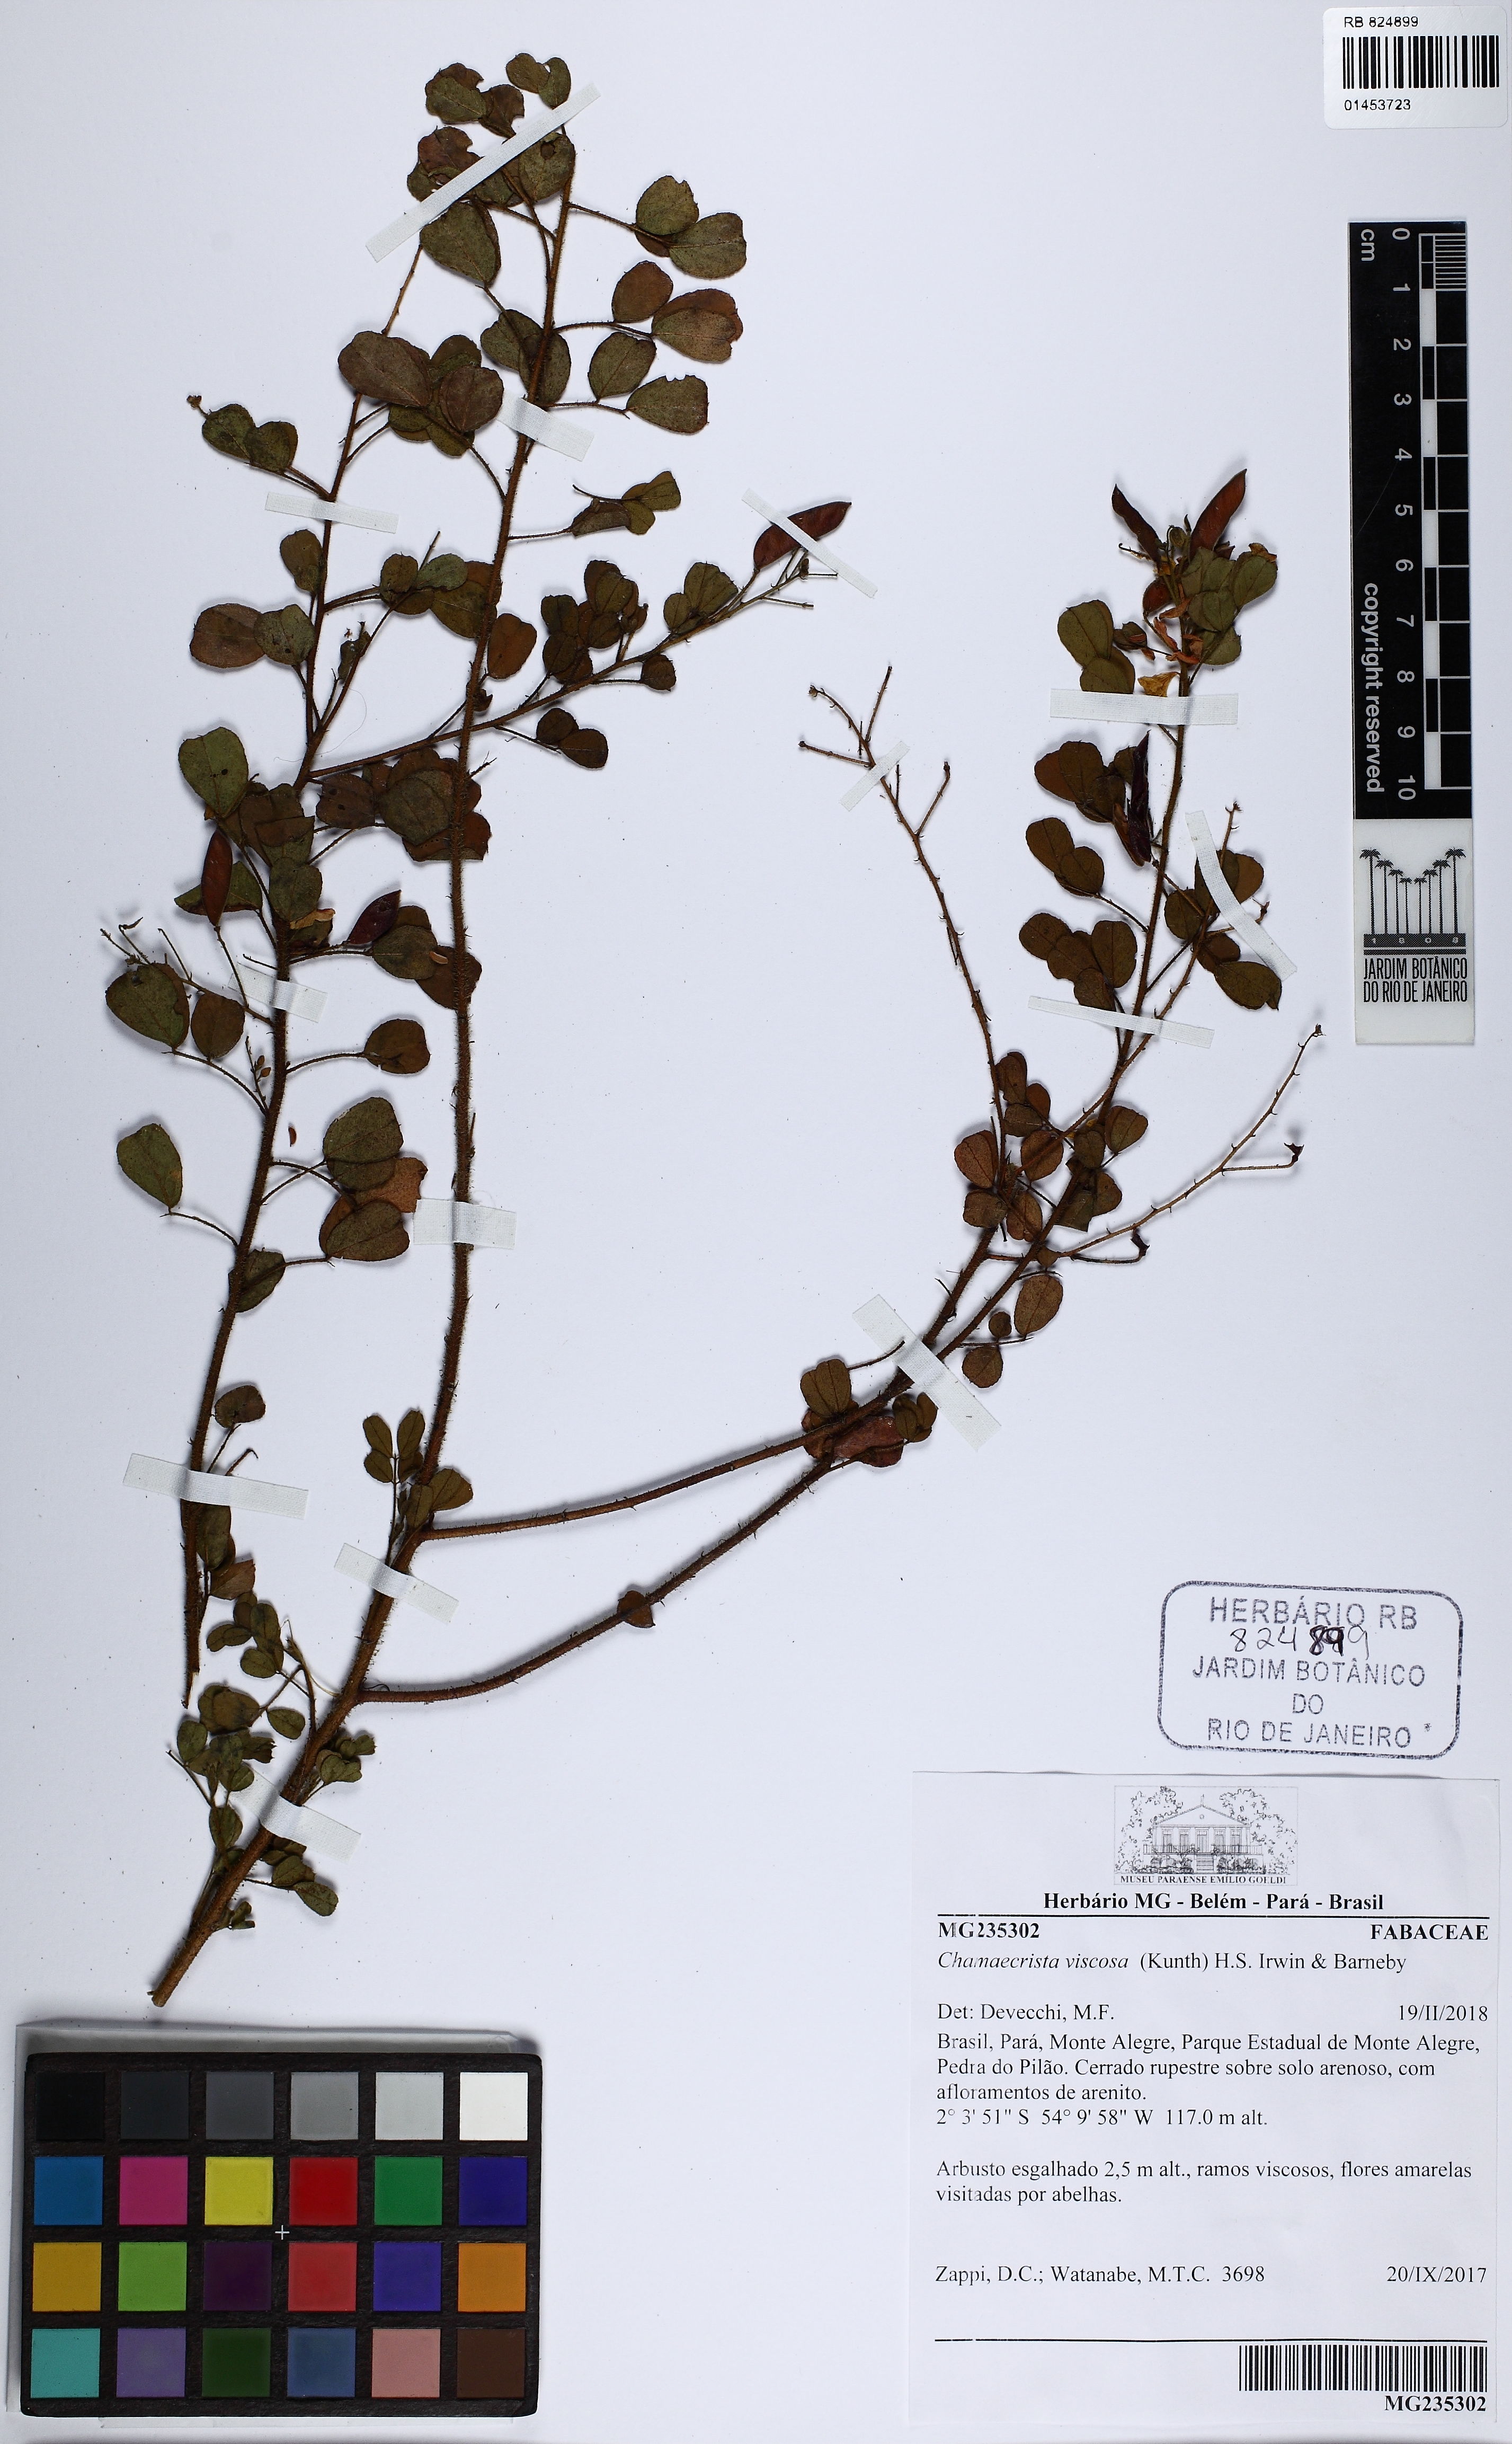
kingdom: Plantae
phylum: Tracheophyta
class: Magnoliopsida
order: Fabales
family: Fabaceae
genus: Chamaecrista
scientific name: Chamaecrista viscosa
